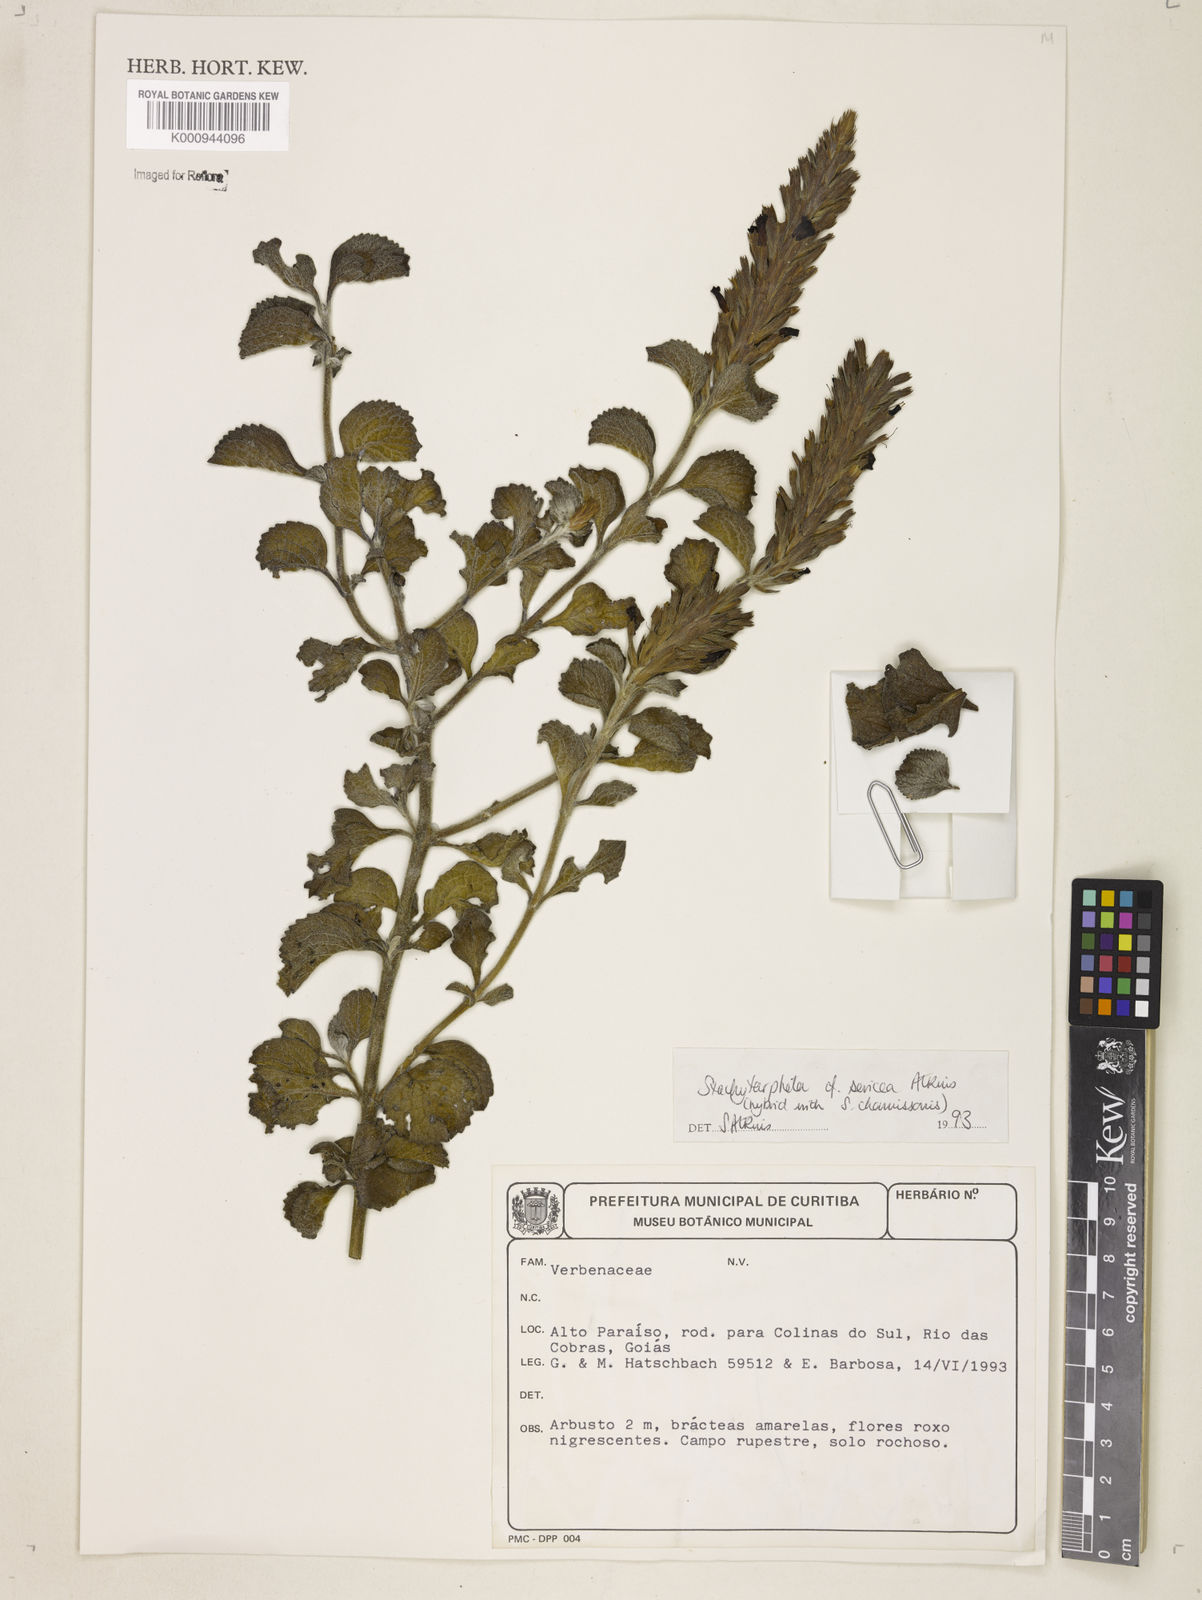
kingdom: Plantae
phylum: Tracheophyta
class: Magnoliopsida
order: Lamiales
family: Verbenaceae
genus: Stachytarpheta
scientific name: Stachytarpheta sericea
